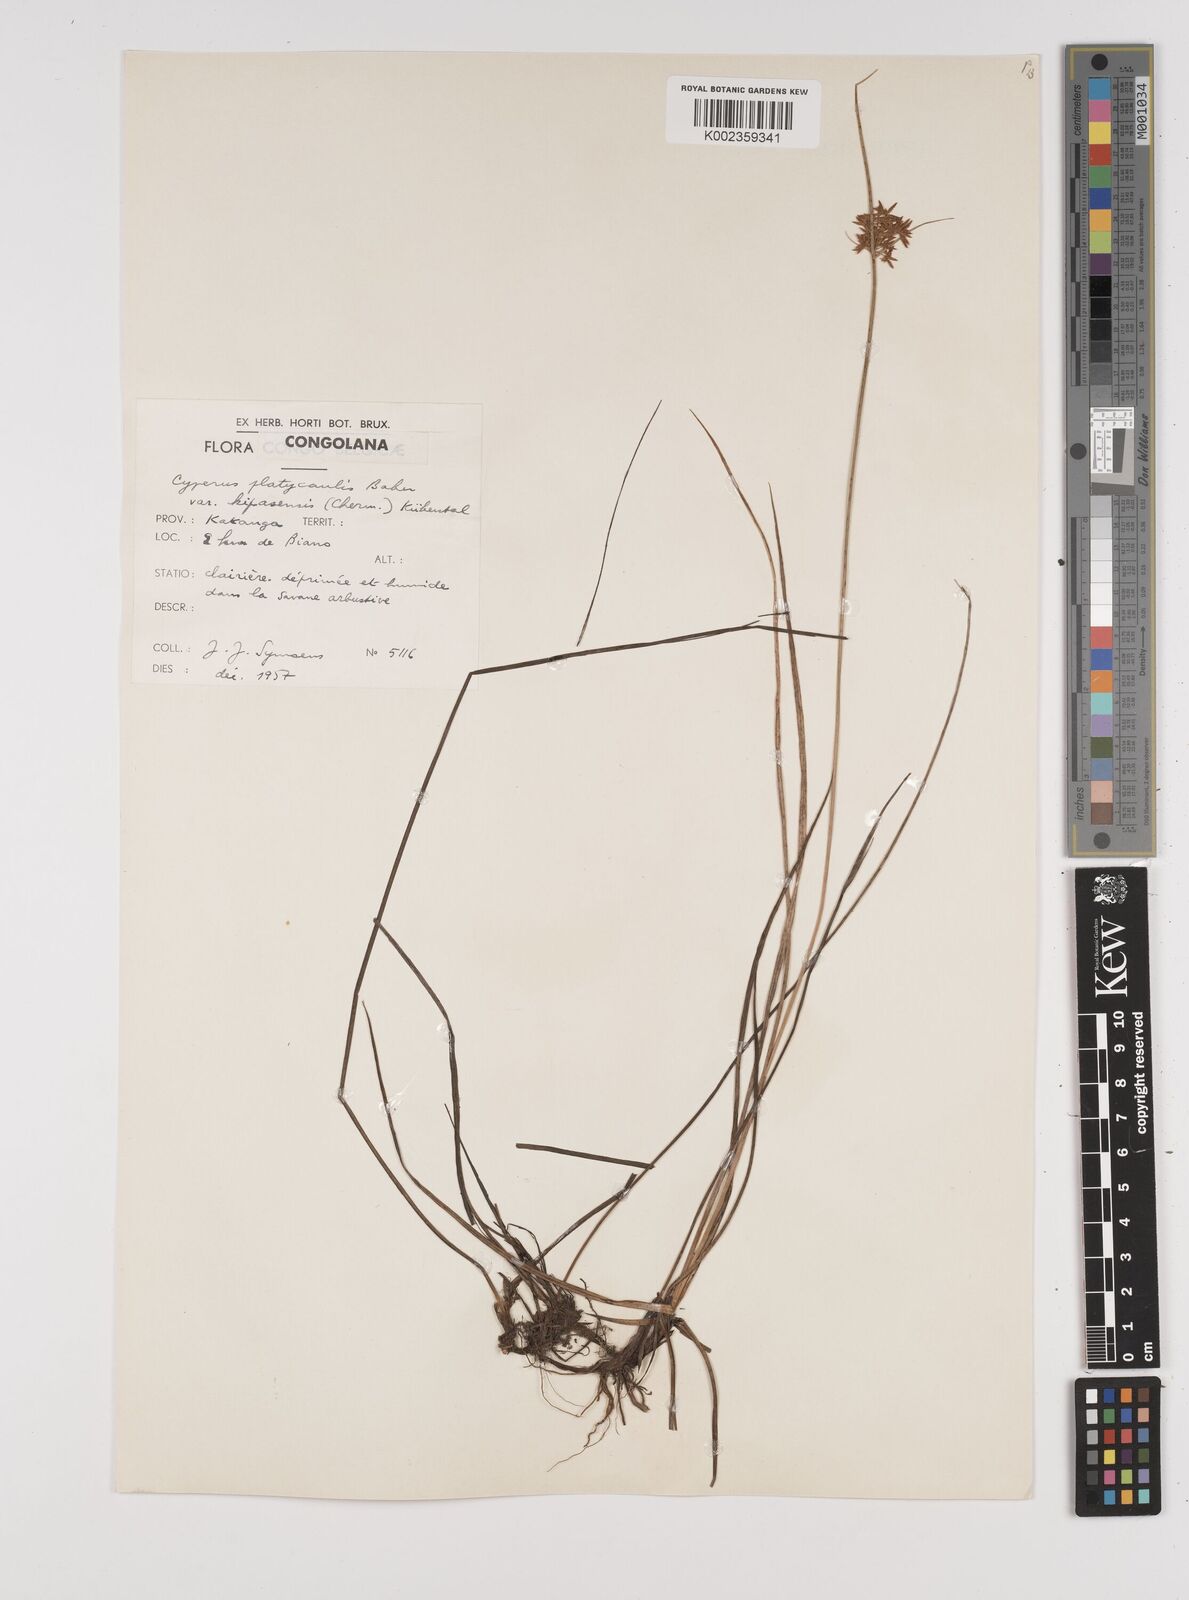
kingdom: Plantae
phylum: Tracheophyta
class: Liliopsida
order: Poales
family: Cyperaceae
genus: Cyperus
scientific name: Cyperus kipasensis
